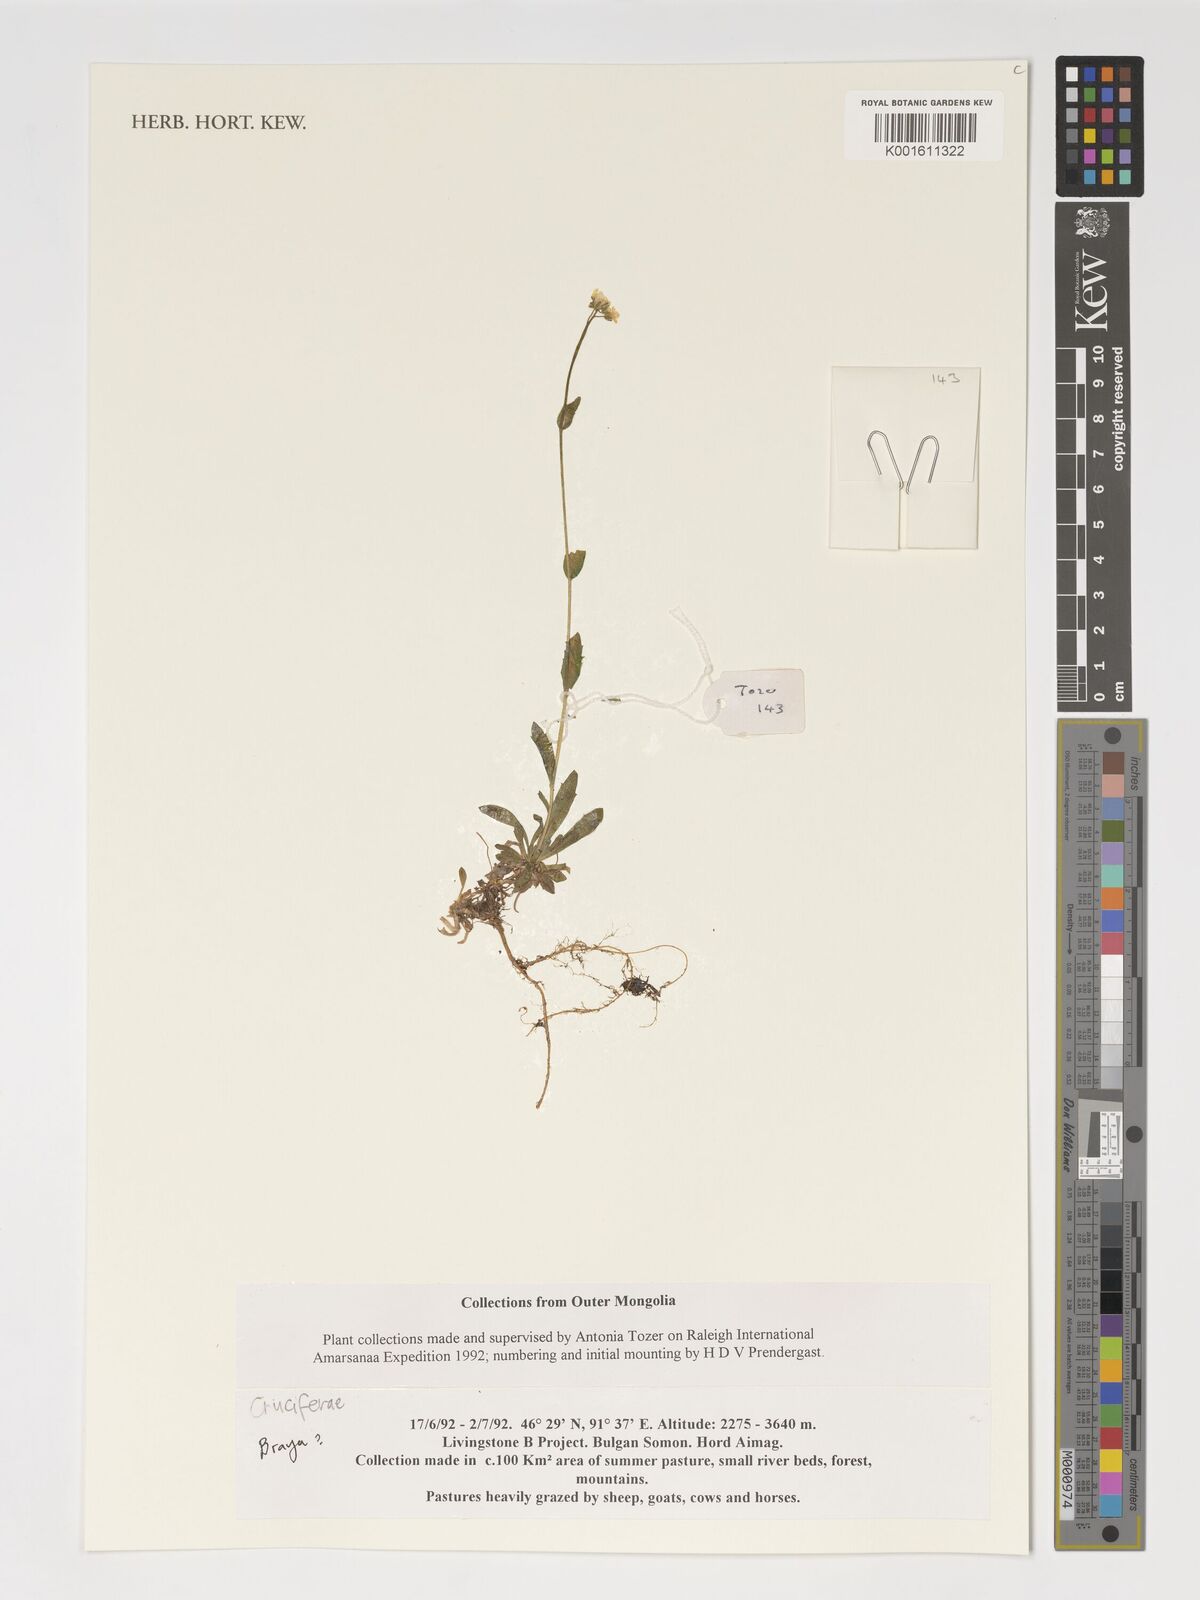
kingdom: Plantae
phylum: Tracheophyta
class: Magnoliopsida
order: Brassicales
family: Brassicaceae
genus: Braya
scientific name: Braya
